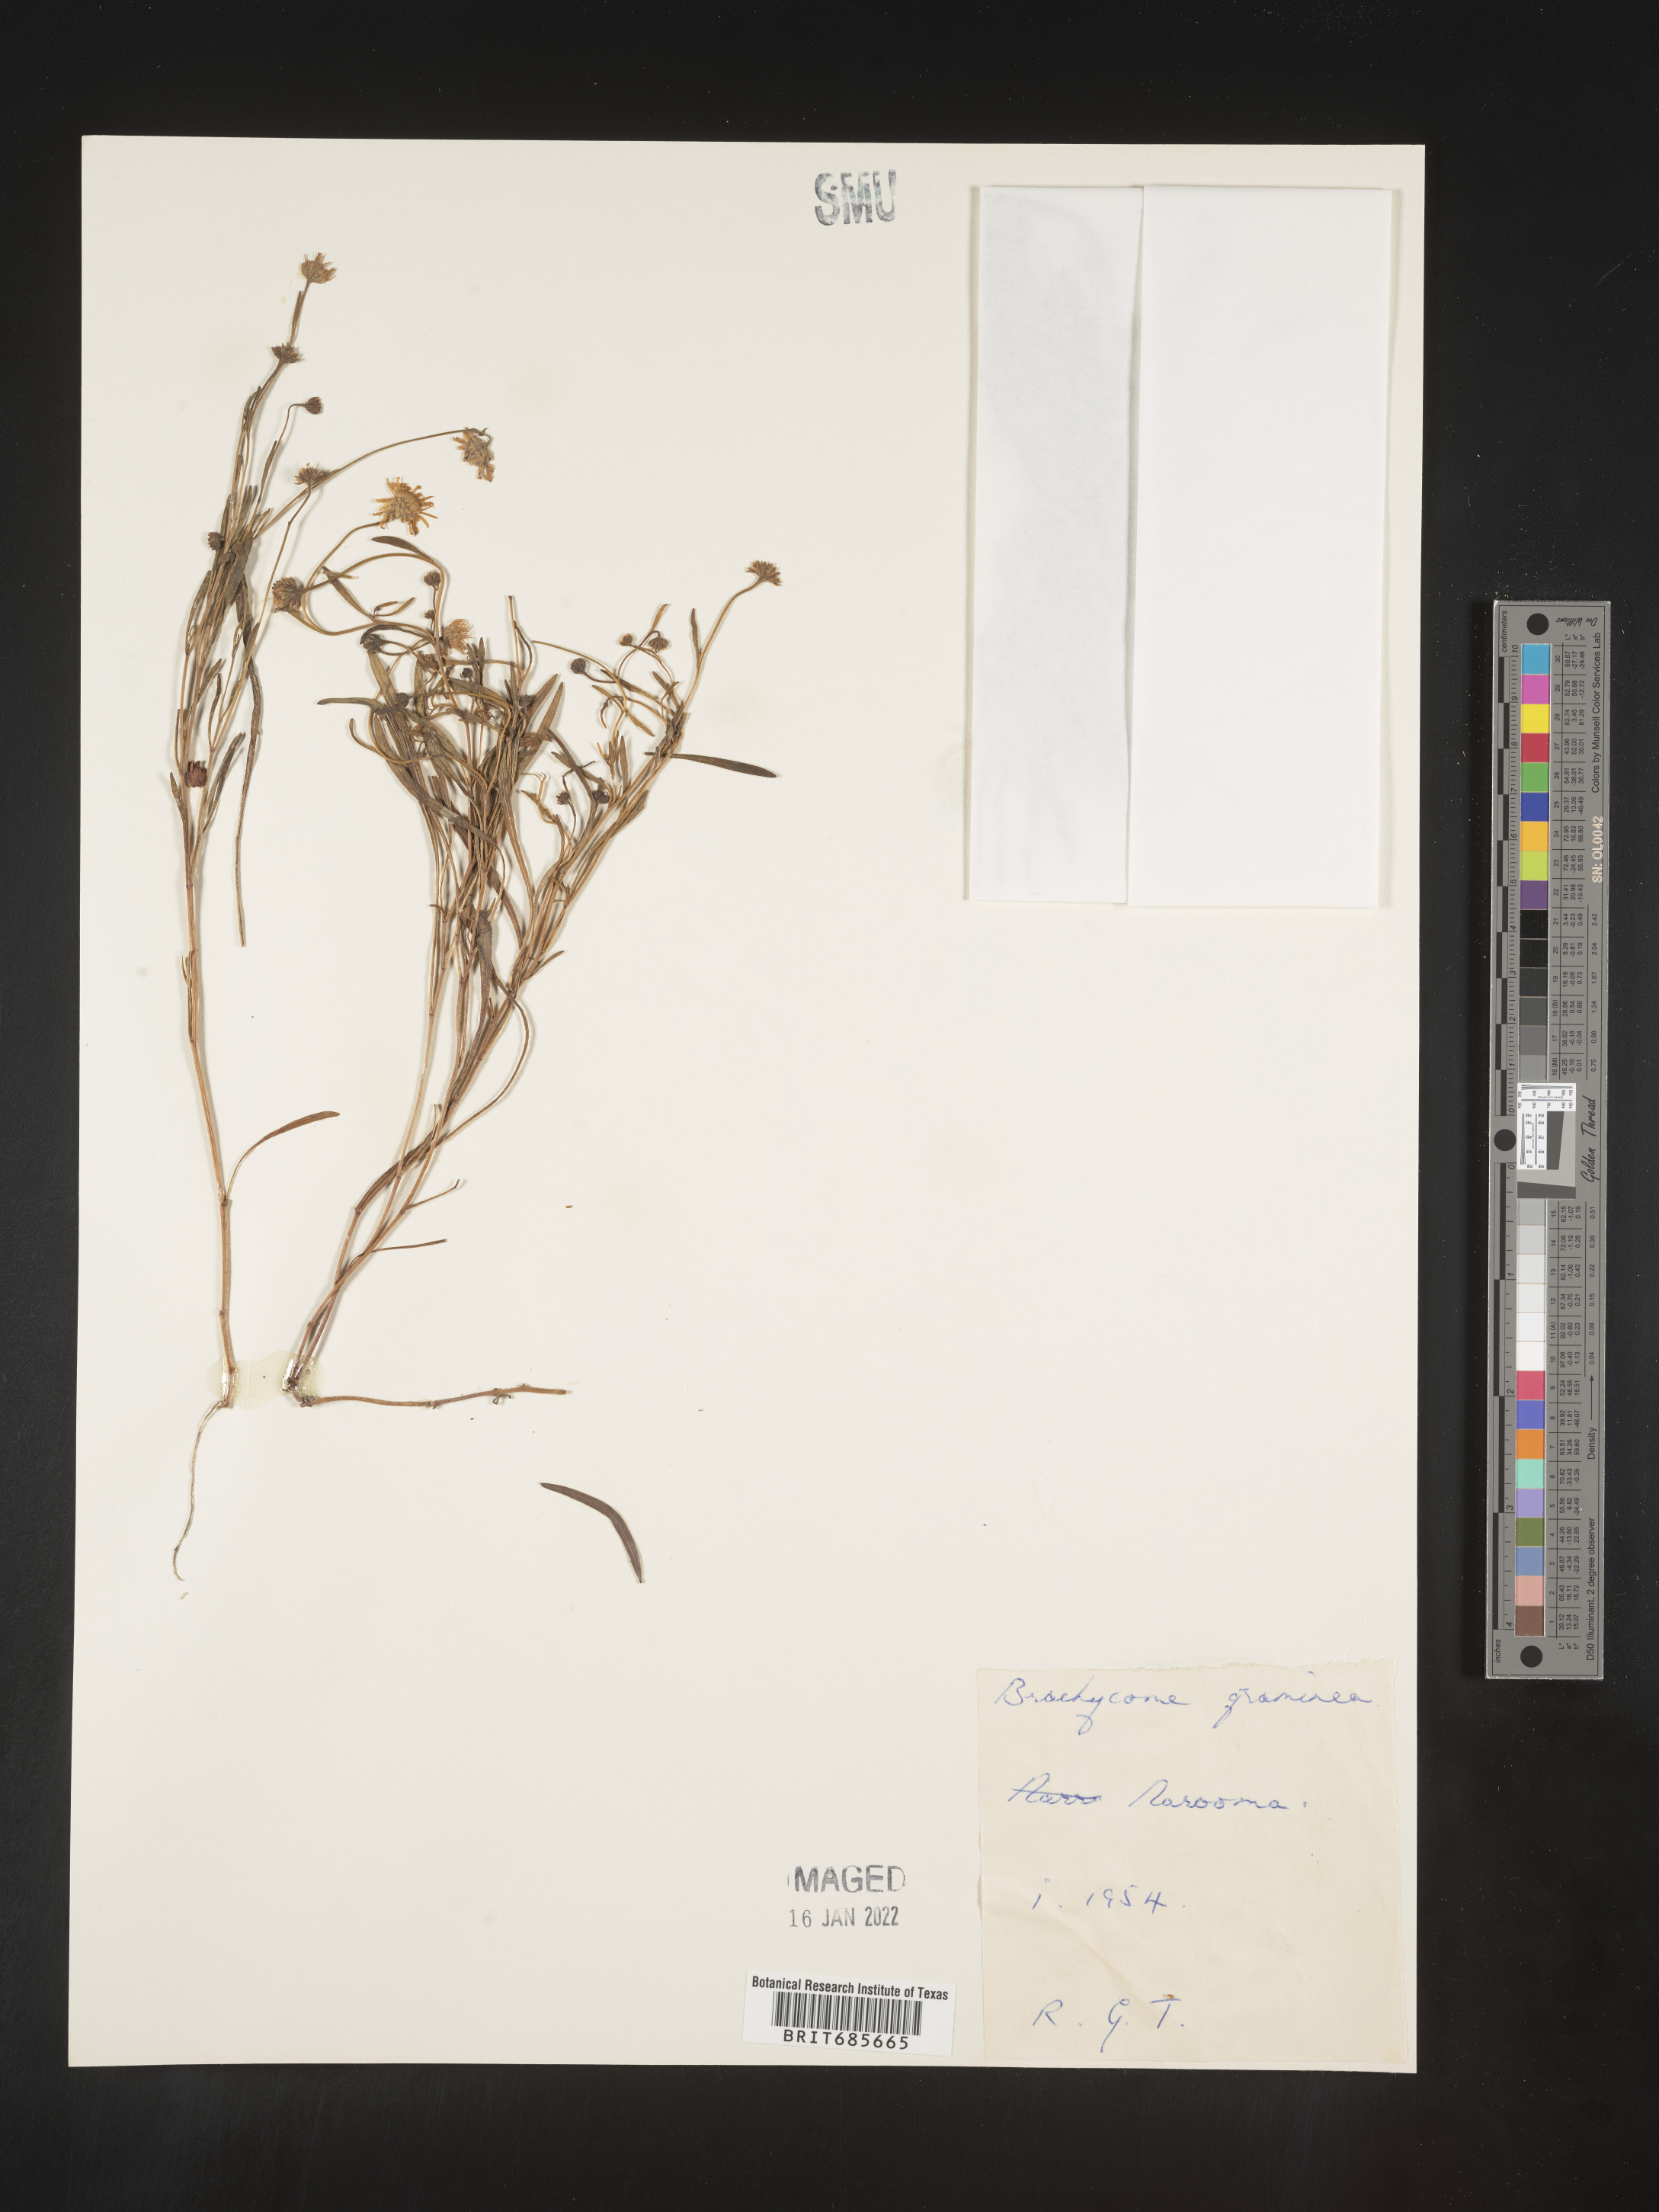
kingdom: Plantae
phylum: Tracheophyta
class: Magnoliopsida
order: Asterales
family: Asteraceae
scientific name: Asteraceae
